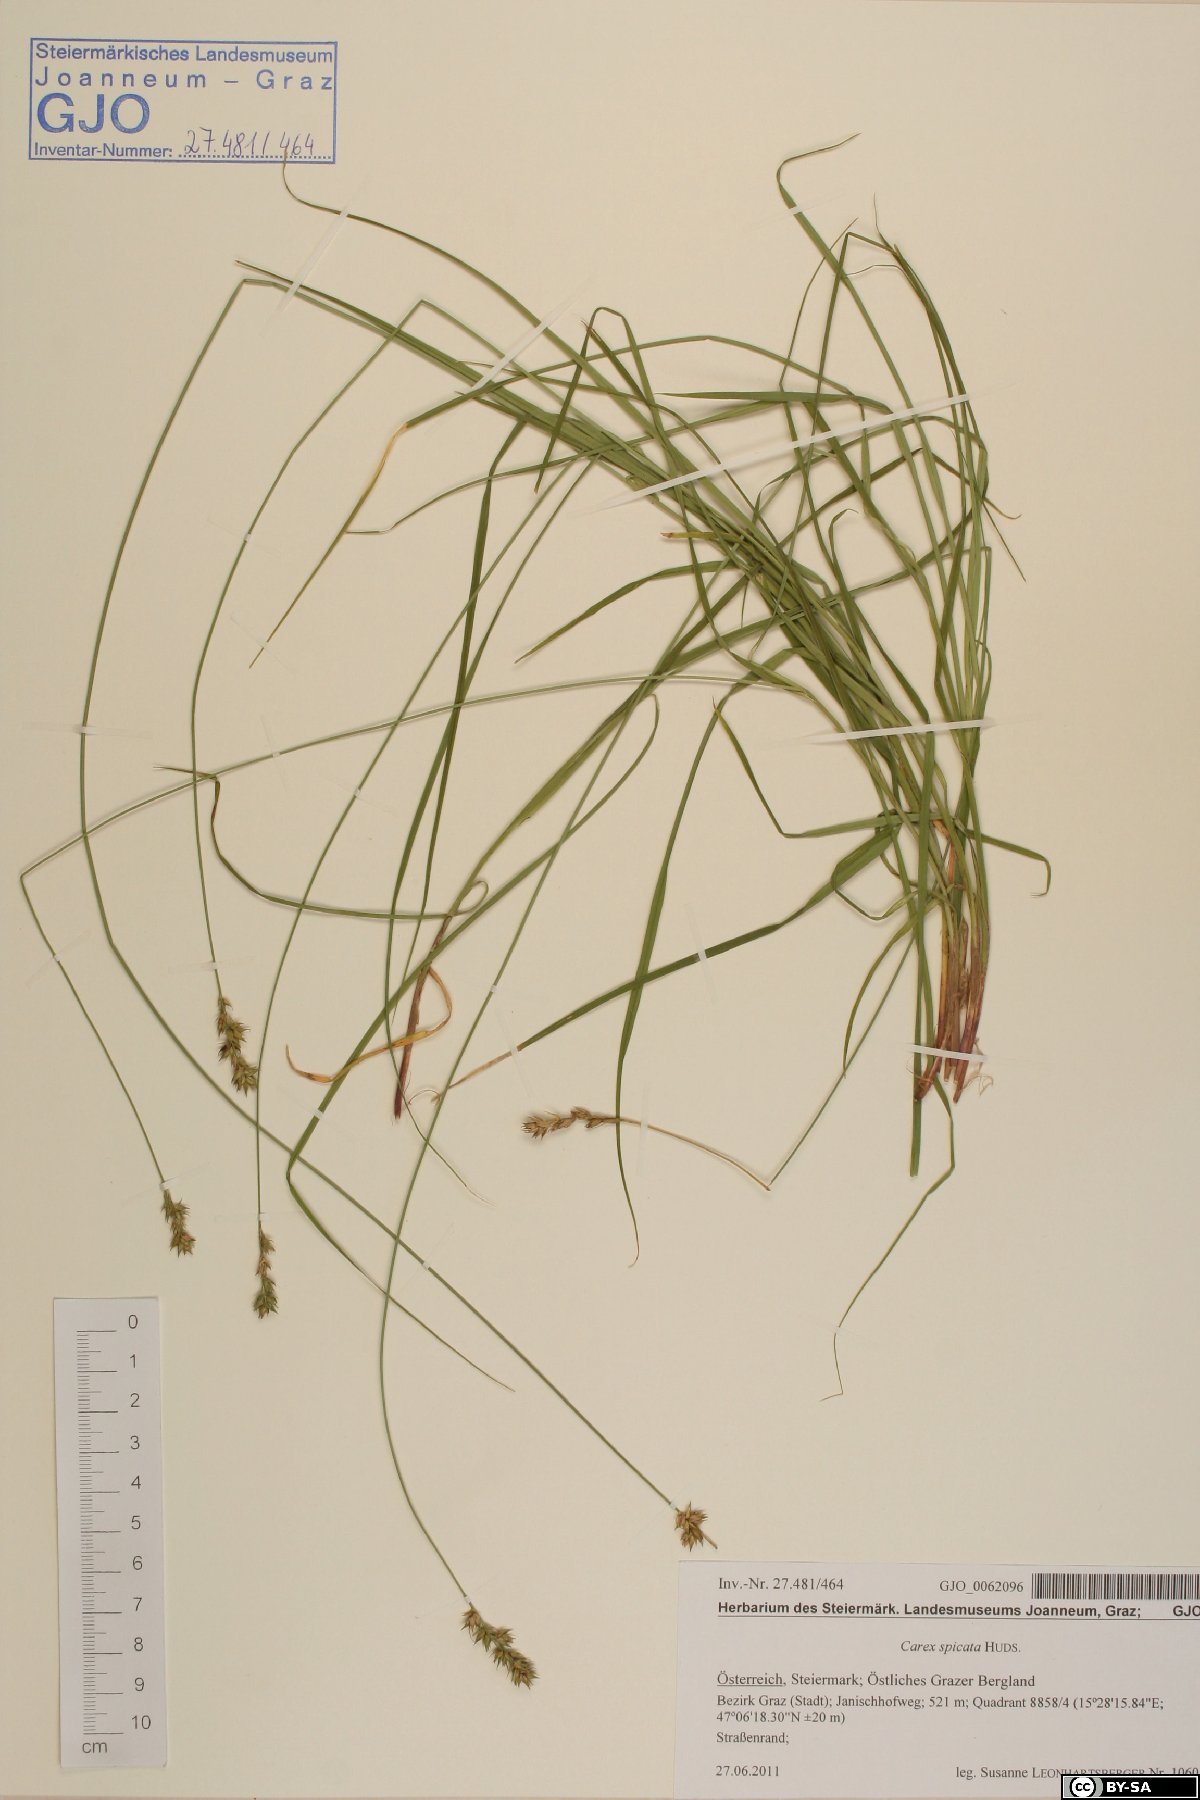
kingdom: Plantae
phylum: Tracheophyta
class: Liliopsida
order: Poales
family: Cyperaceae
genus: Carex
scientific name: Carex spicata
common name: Spiked sedge
